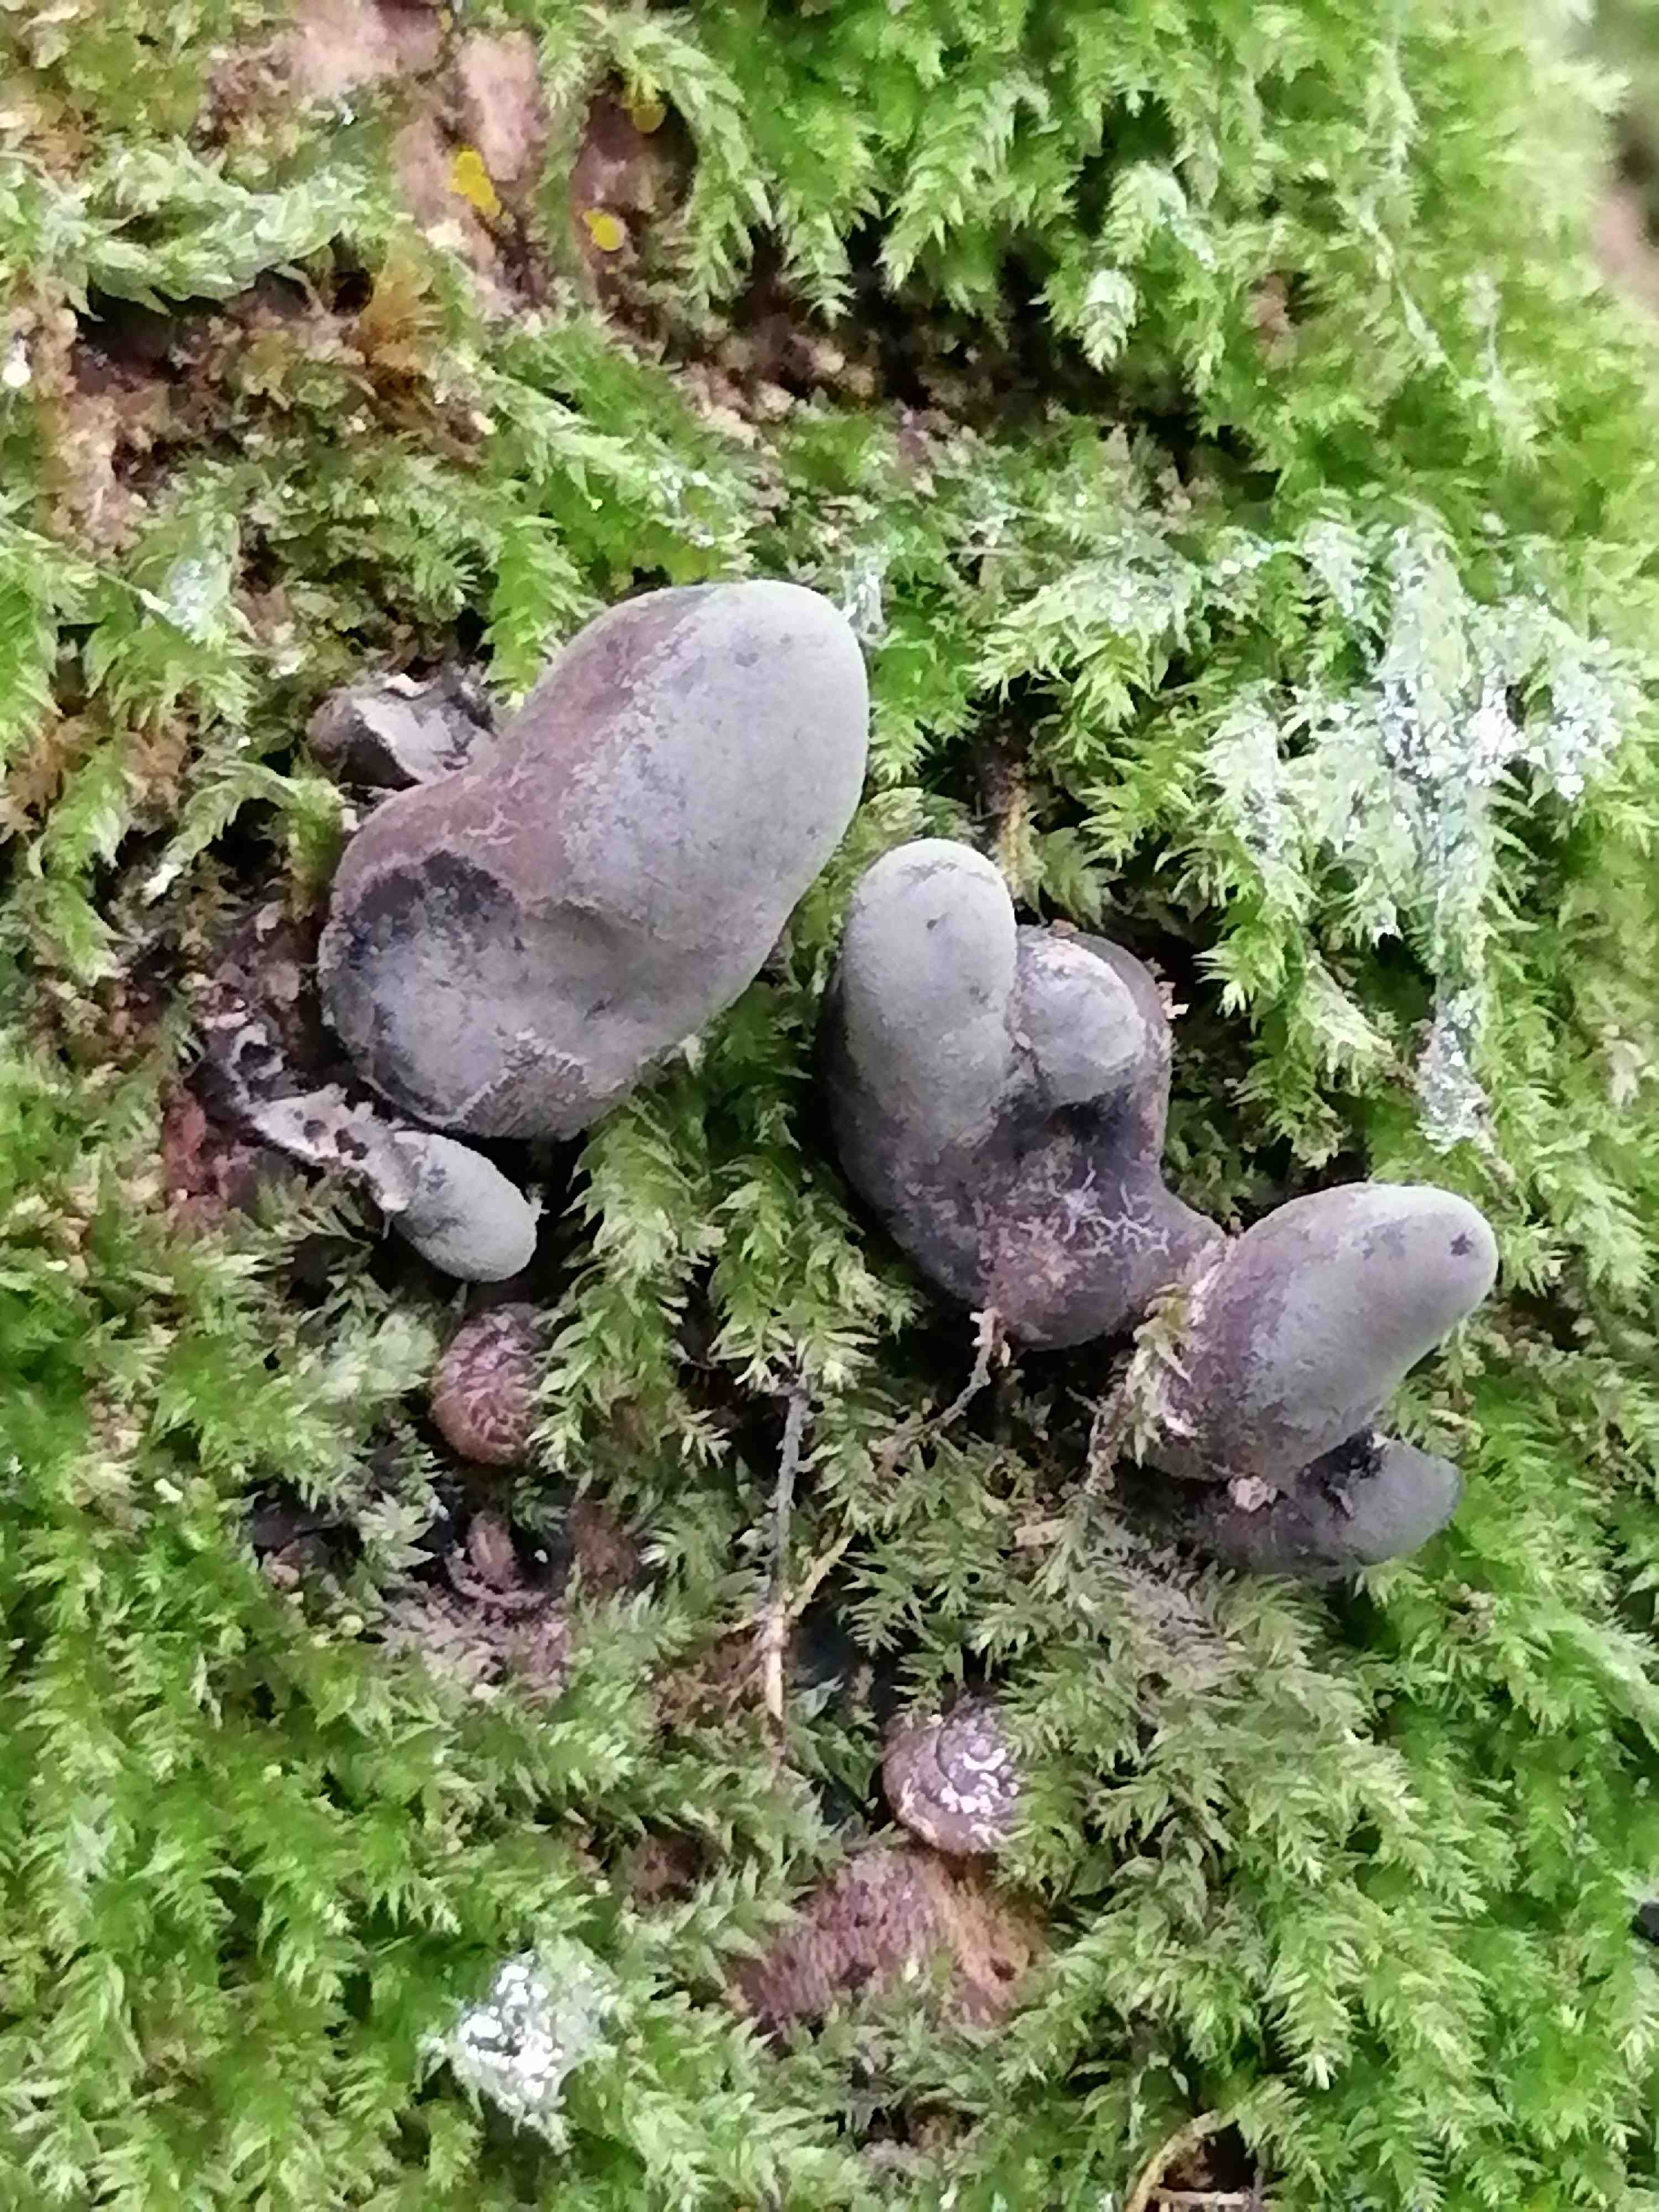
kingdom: Fungi
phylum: Ascomycota
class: Sordariomycetes
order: Xylariales
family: Xylariaceae
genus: Xylaria
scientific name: Xylaria
